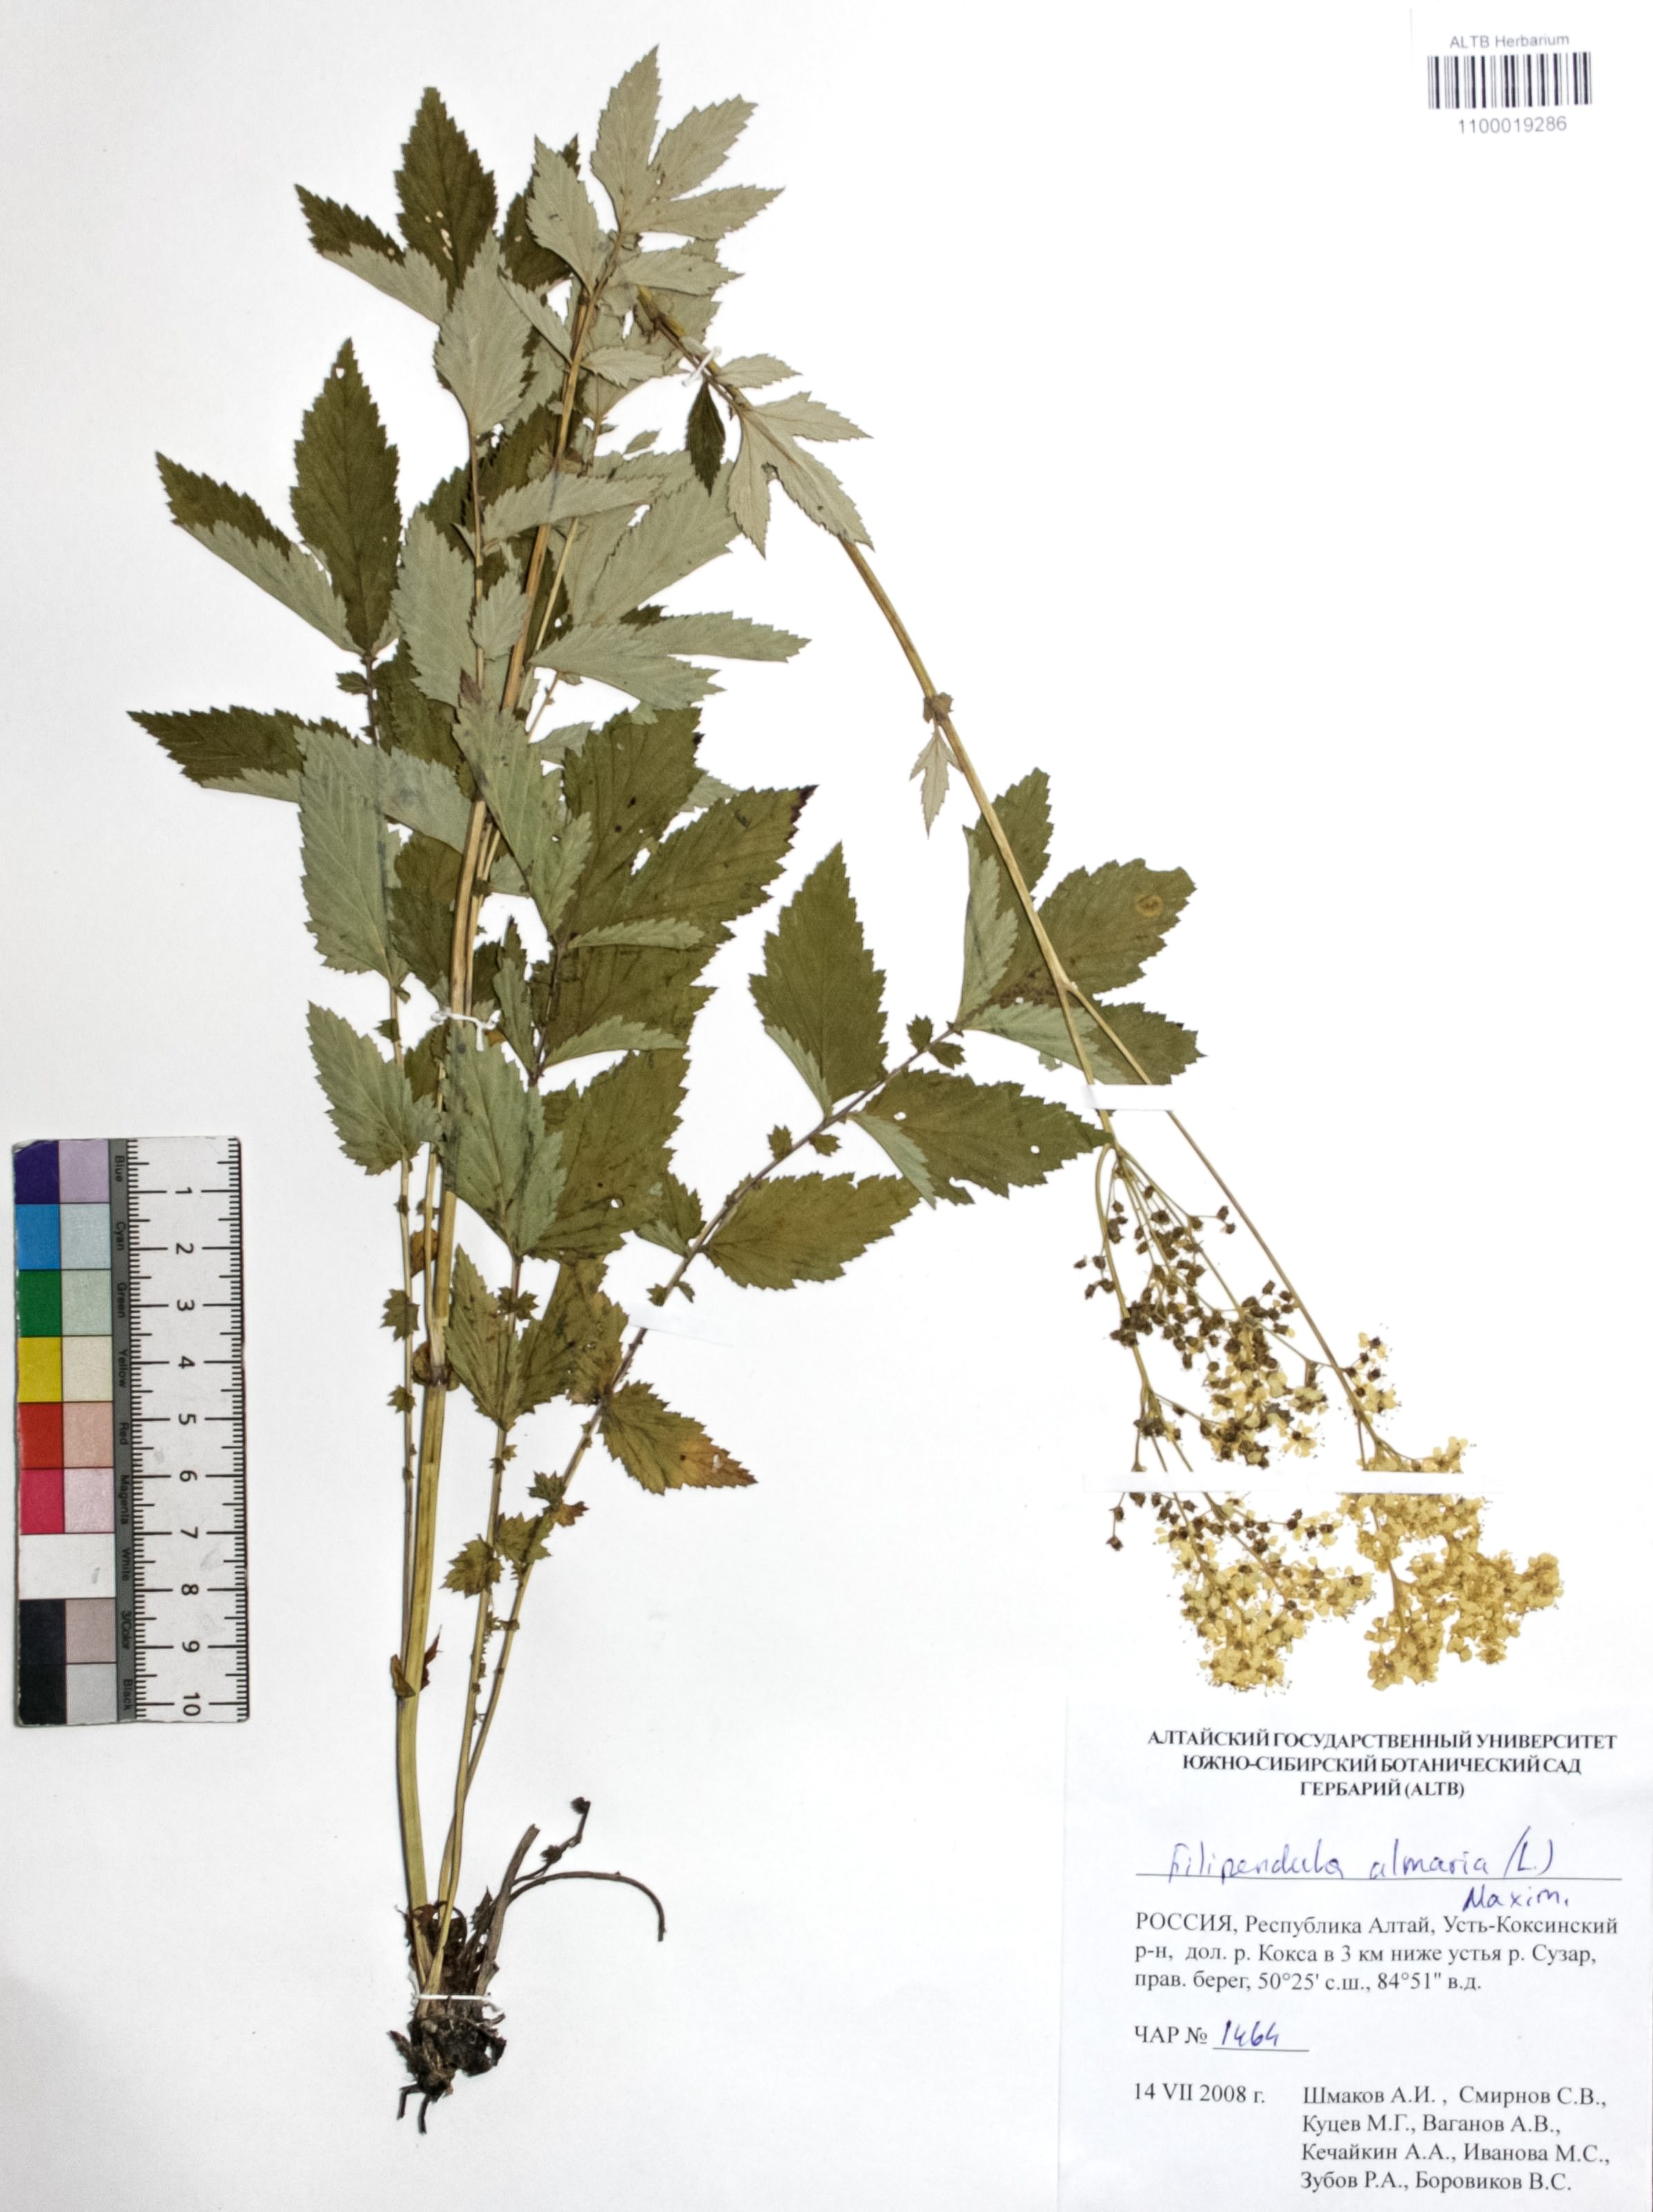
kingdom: Plantae
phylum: Tracheophyta
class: Magnoliopsida
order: Rosales
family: Rosaceae
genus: Filipendula
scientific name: Filipendula ulmaria
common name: Meadowsweet
